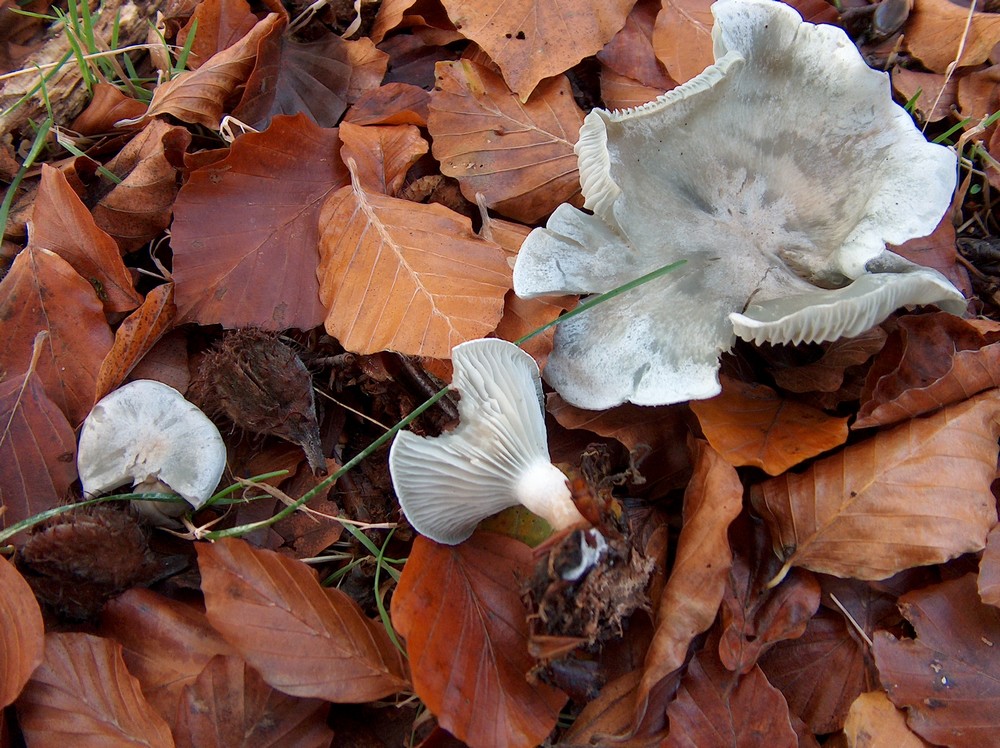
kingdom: Fungi
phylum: Basidiomycota
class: Agaricomycetes
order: Agaricales
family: Tricholomataceae
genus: Clitocybe
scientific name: Clitocybe odora
